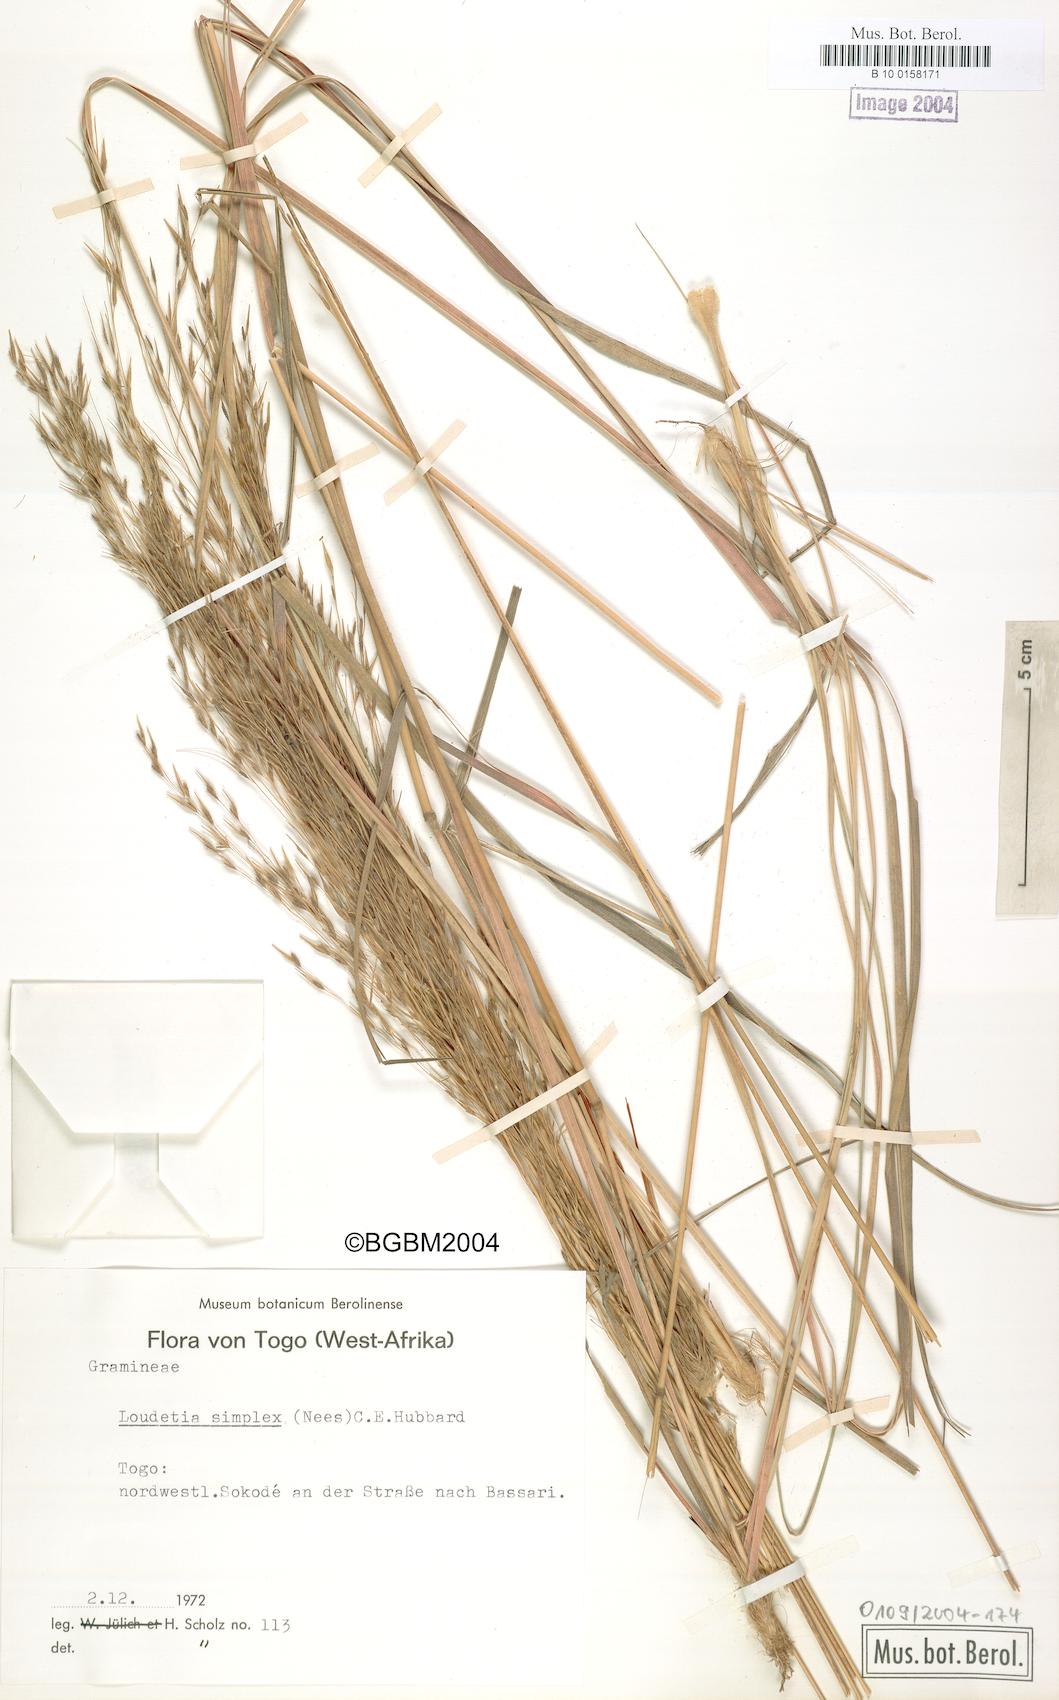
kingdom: Plantae
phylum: Tracheophyta
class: Liliopsida
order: Poales
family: Poaceae
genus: Loudetia
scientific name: Loudetia simplex
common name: Common russet grass
